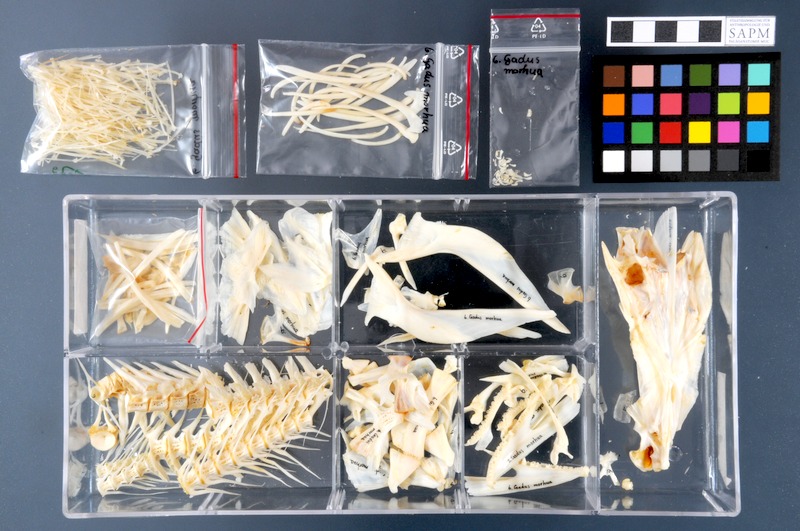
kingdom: Animalia
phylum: Chordata
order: Gadiformes
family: Gadidae
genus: Gadus
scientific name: Gadus morhua
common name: Atlantic cod
